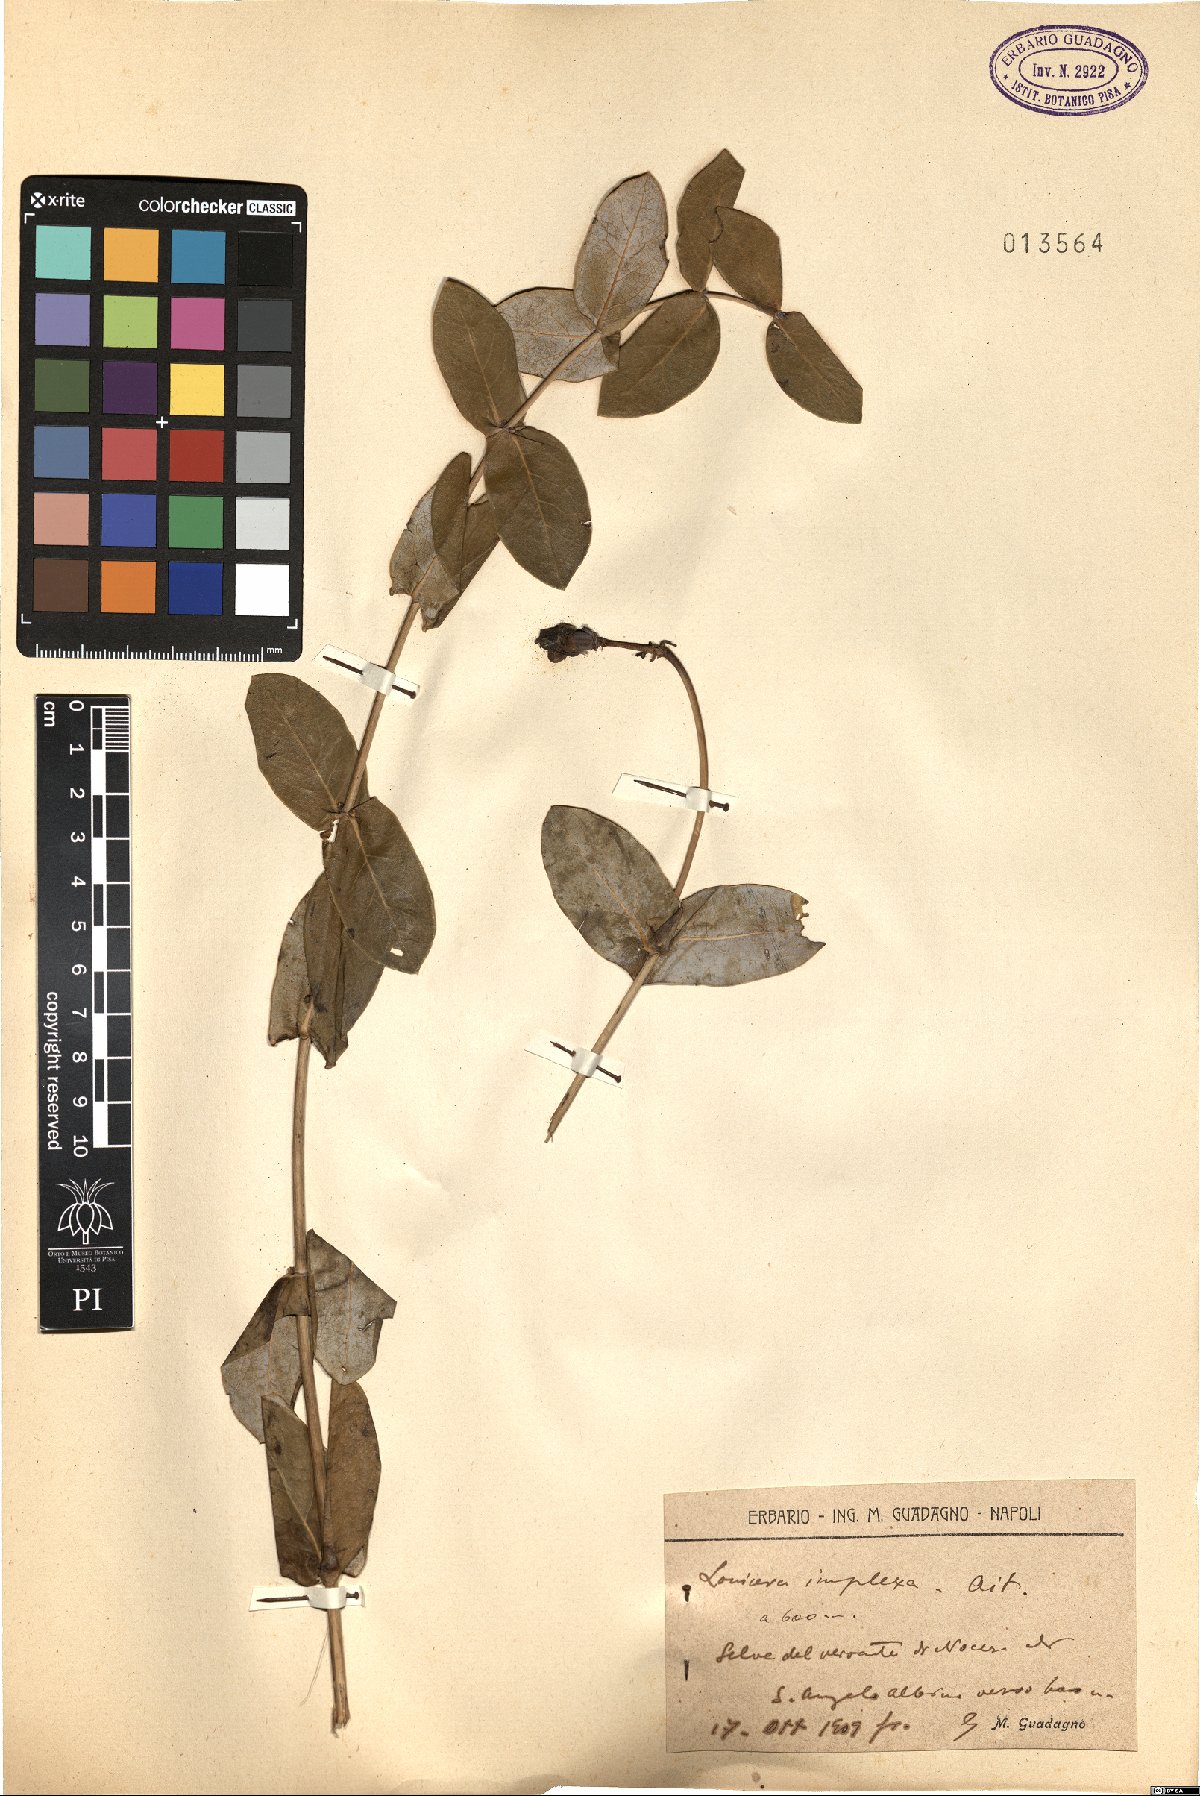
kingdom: Plantae
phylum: Tracheophyta
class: Magnoliopsida
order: Dipsacales
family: Caprifoliaceae
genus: Lonicera
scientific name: Lonicera implexa
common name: Minorca honeysuckle
